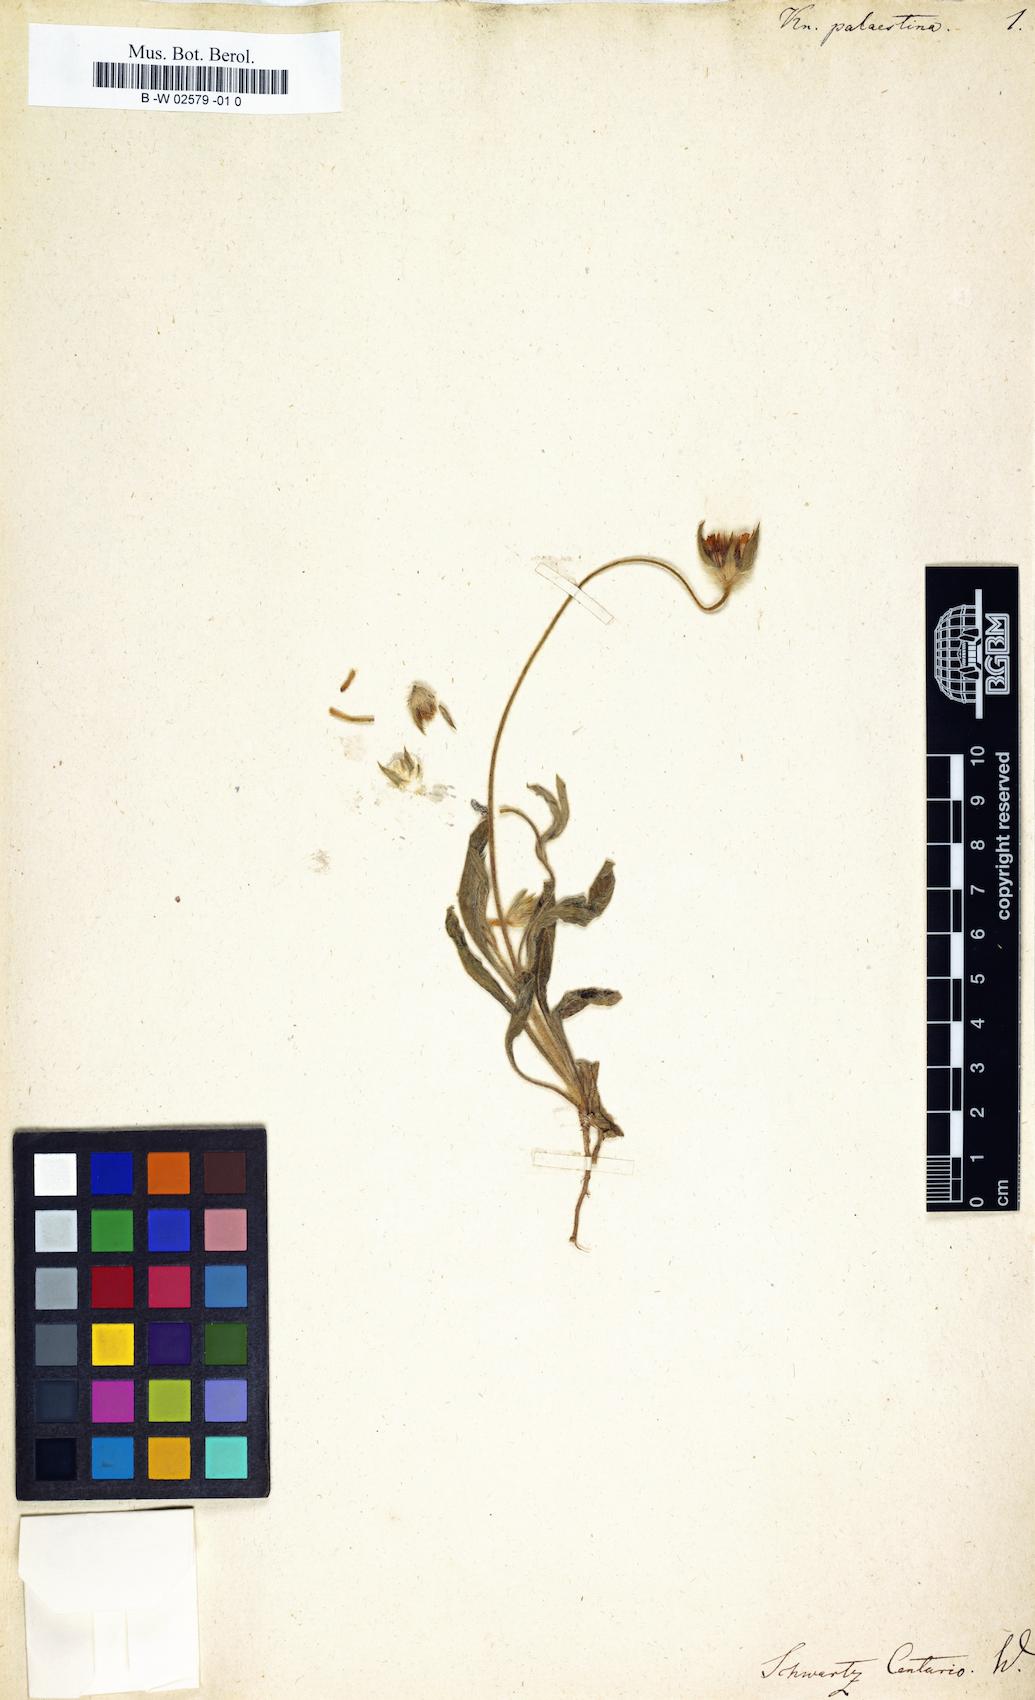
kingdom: Plantae
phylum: Tracheophyta
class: Magnoliopsida
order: Dipsacales
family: Caprifoliaceae
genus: Lomelosia
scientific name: Lomelosia palaestina
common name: Balkan pincushions
